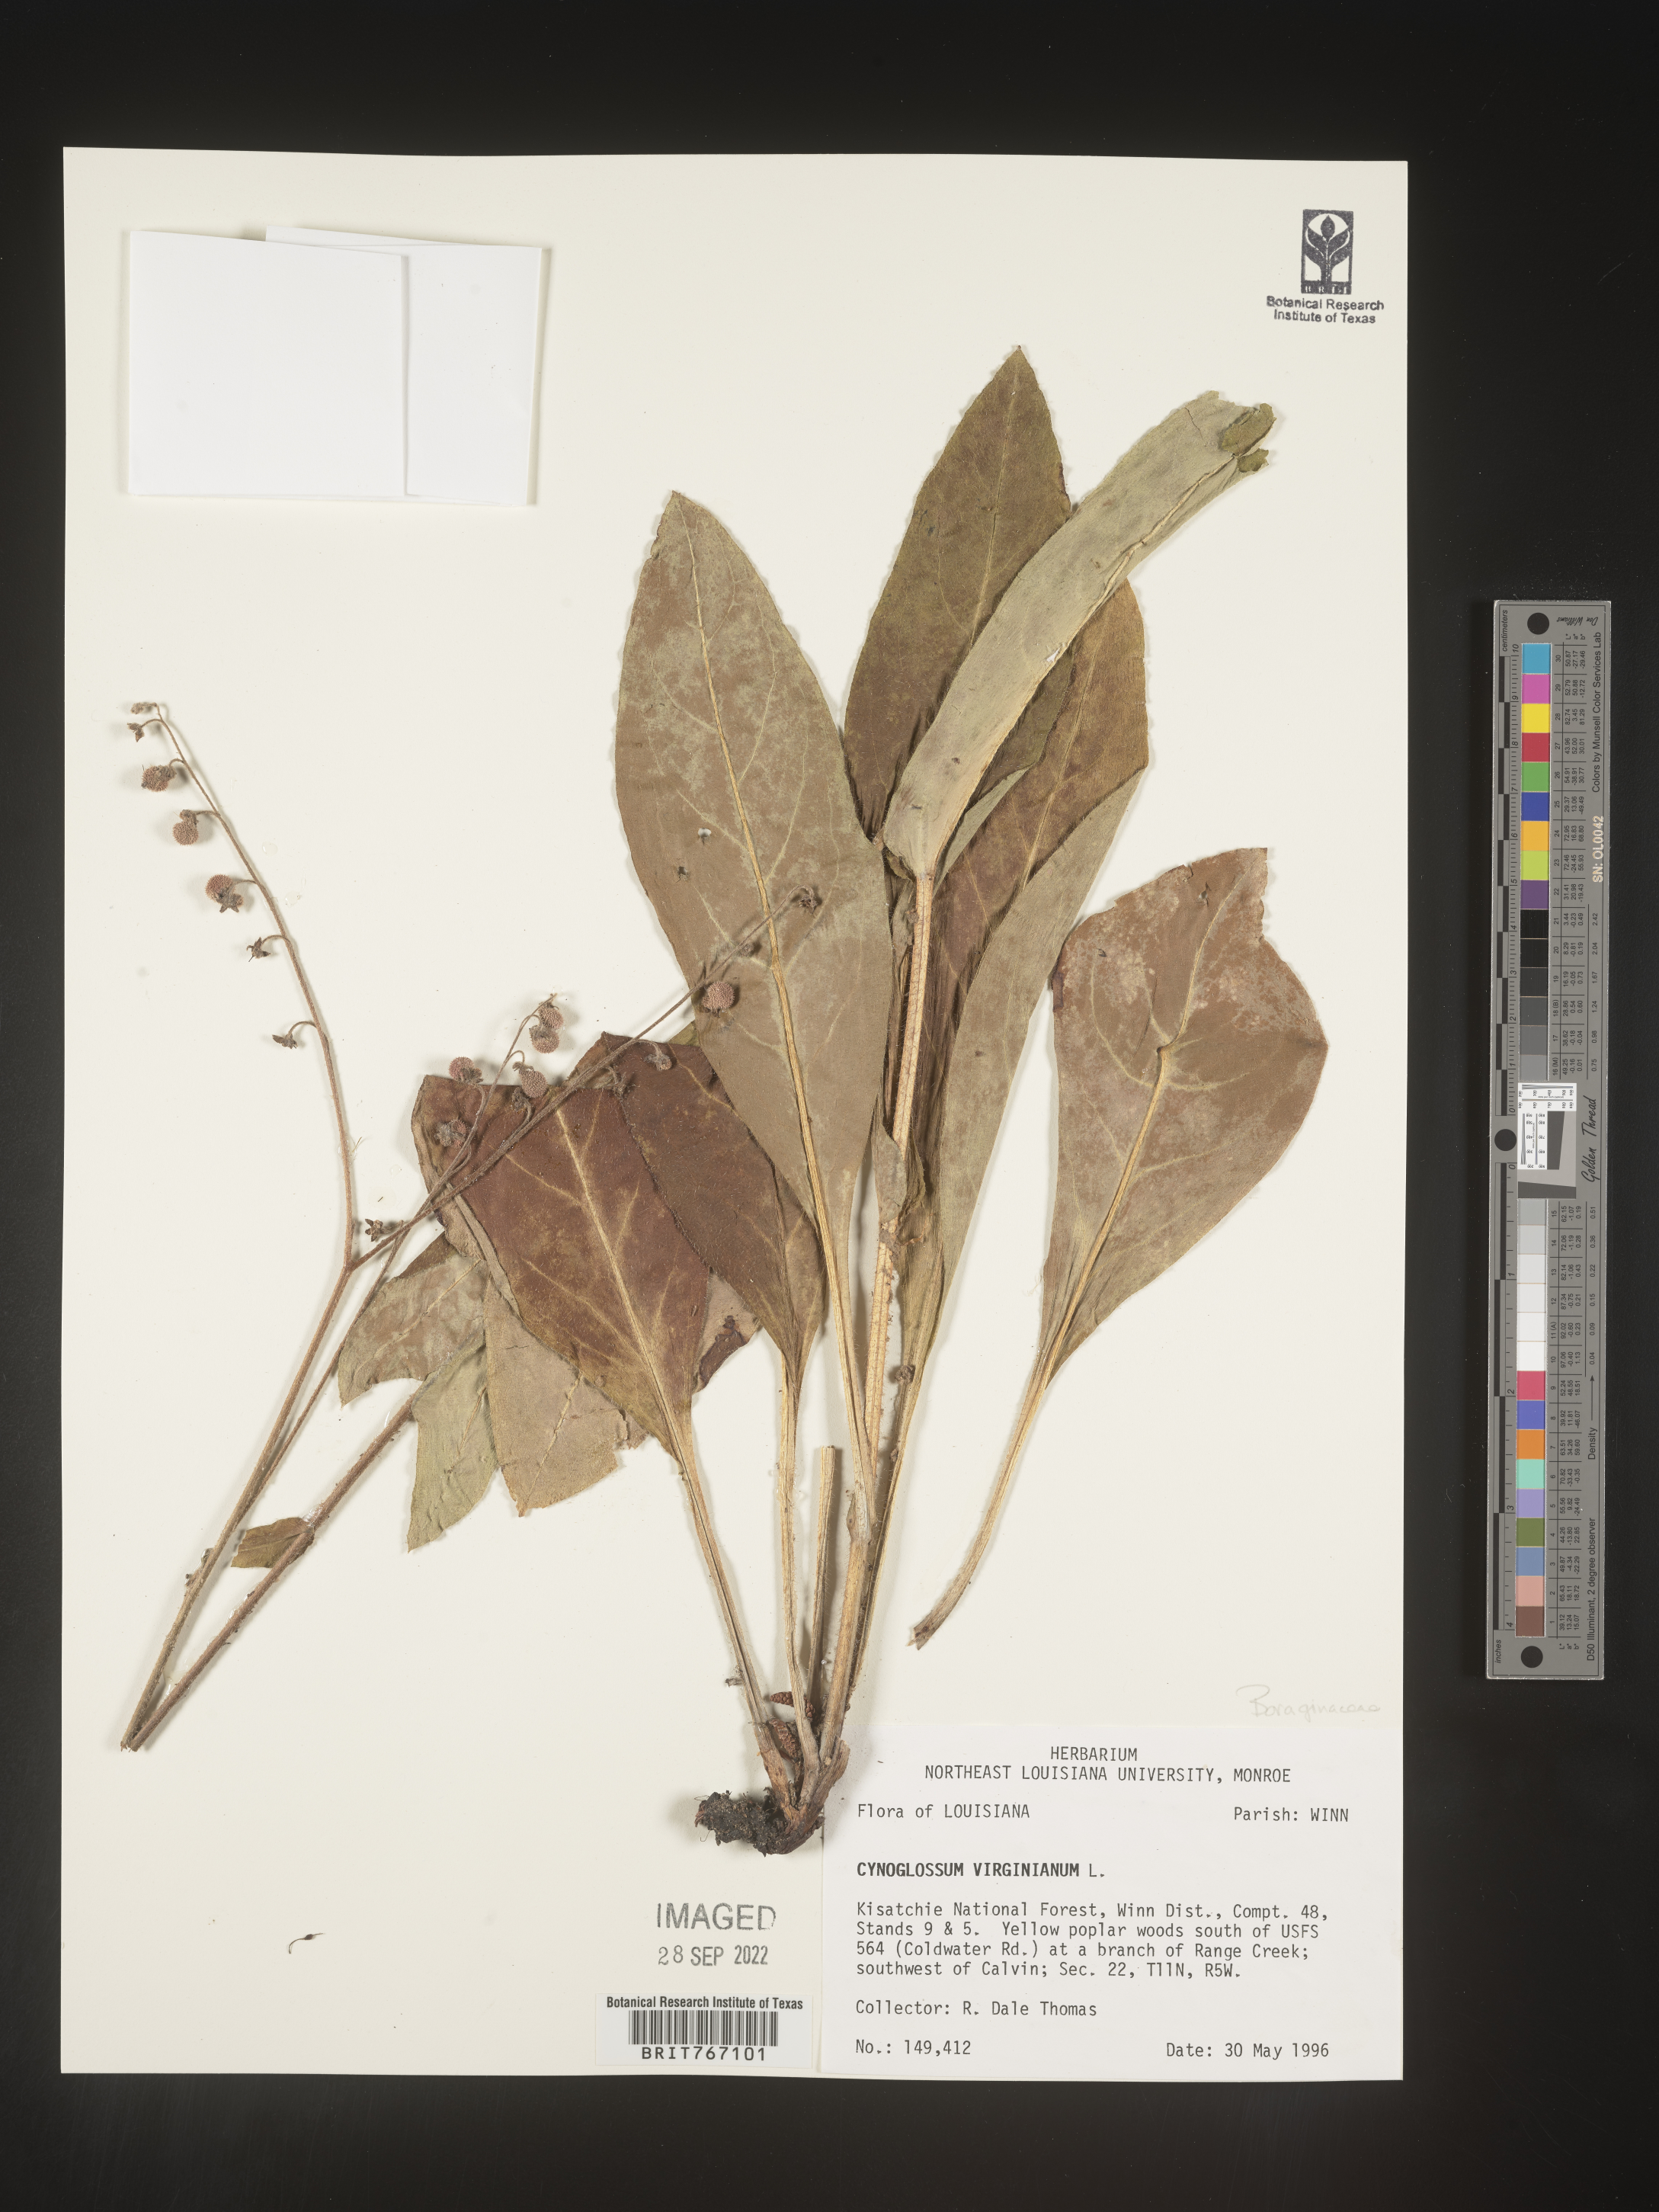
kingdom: Plantae
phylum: Tracheophyta
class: Magnoliopsida
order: Boraginales
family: Boraginaceae
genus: Andersonglossum
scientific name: Andersonglossum virginianum
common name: Wild comfrey
